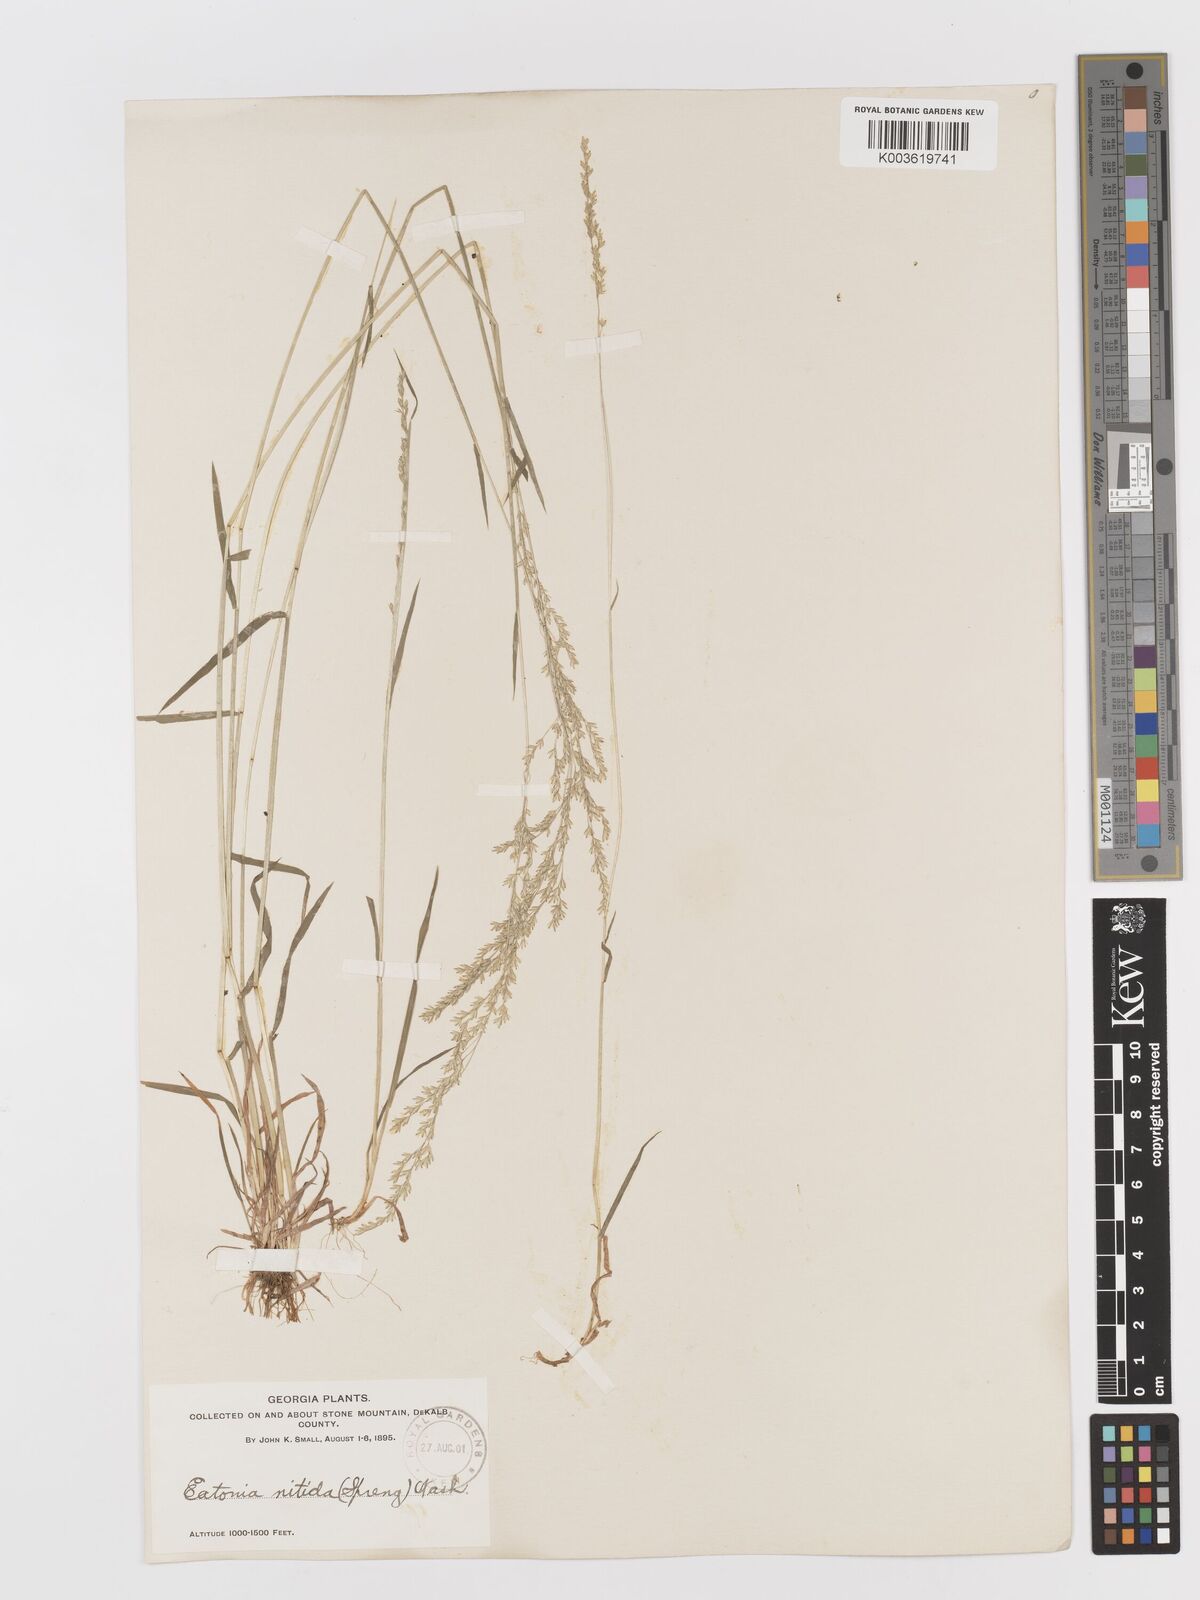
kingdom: Plantae
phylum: Tracheophyta
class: Liliopsida
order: Poales
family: Poaceae
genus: Sphenopholis
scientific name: Sphenopholis nitida
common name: Shiny wedgegrass
